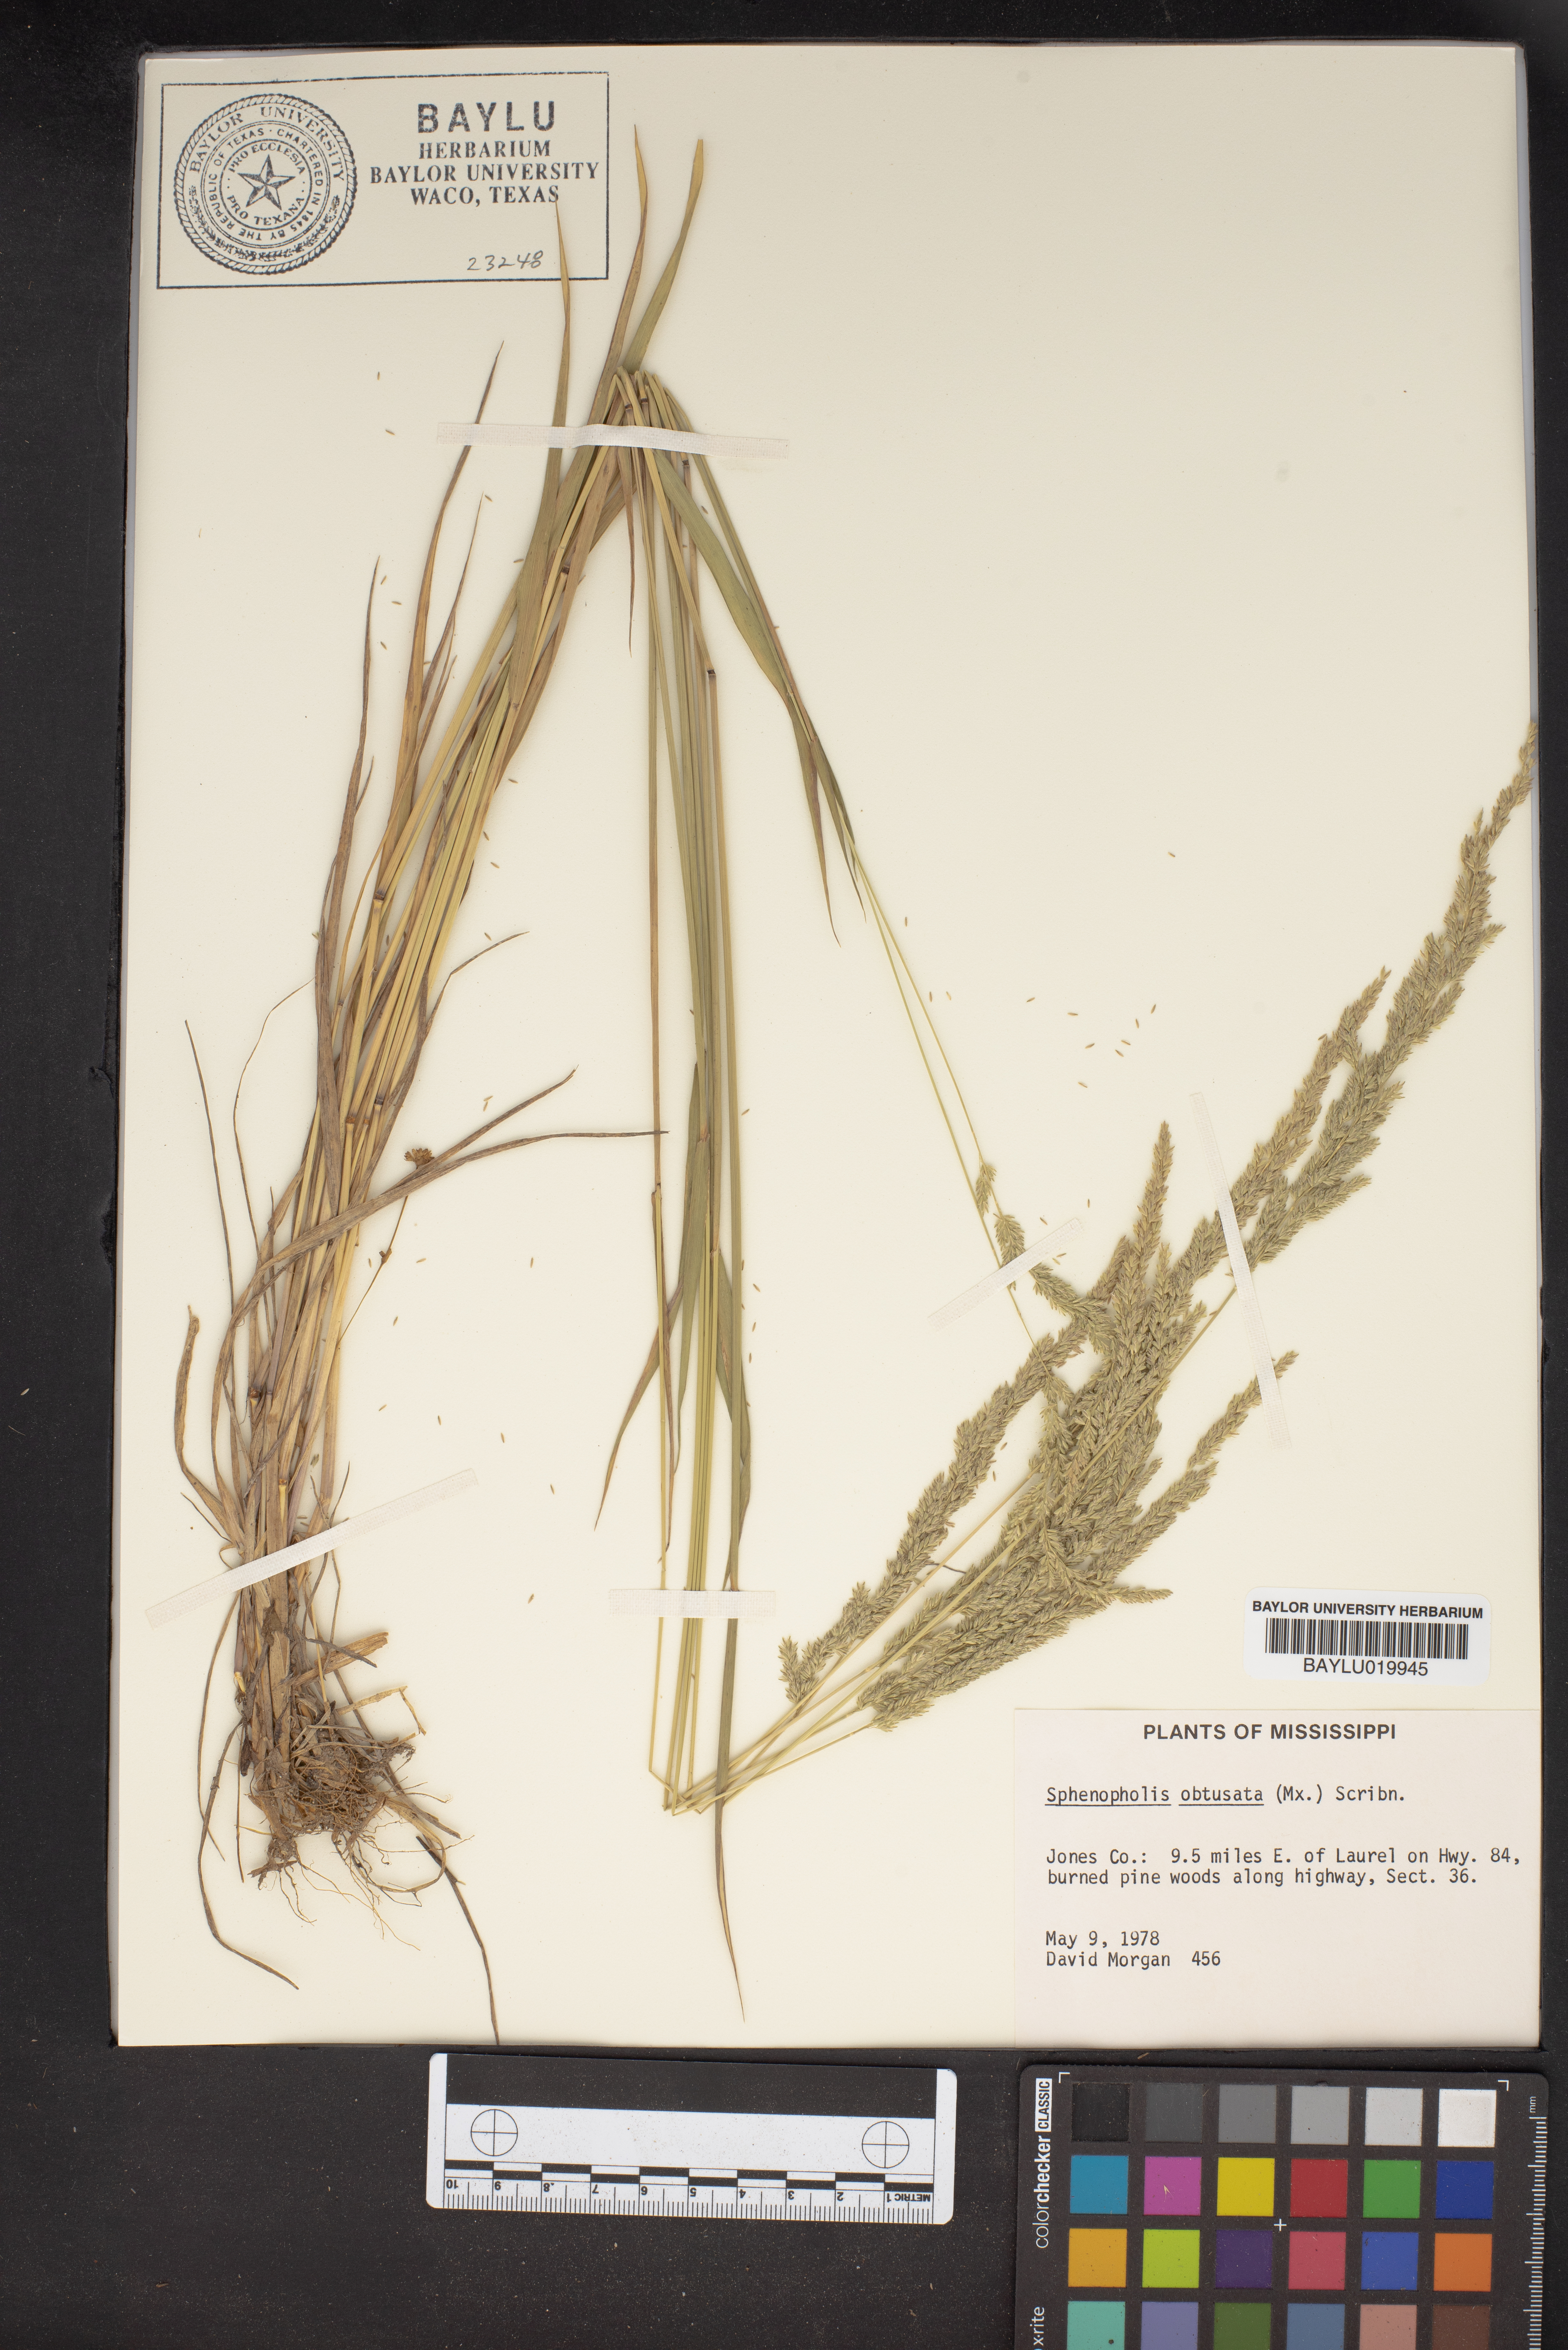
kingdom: Plantae
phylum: Tracheophyta
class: Liliopsida
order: Poales
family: Poaceae
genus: Sphenopholis
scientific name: Sphenopholis obtusata
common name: Prairie grass
